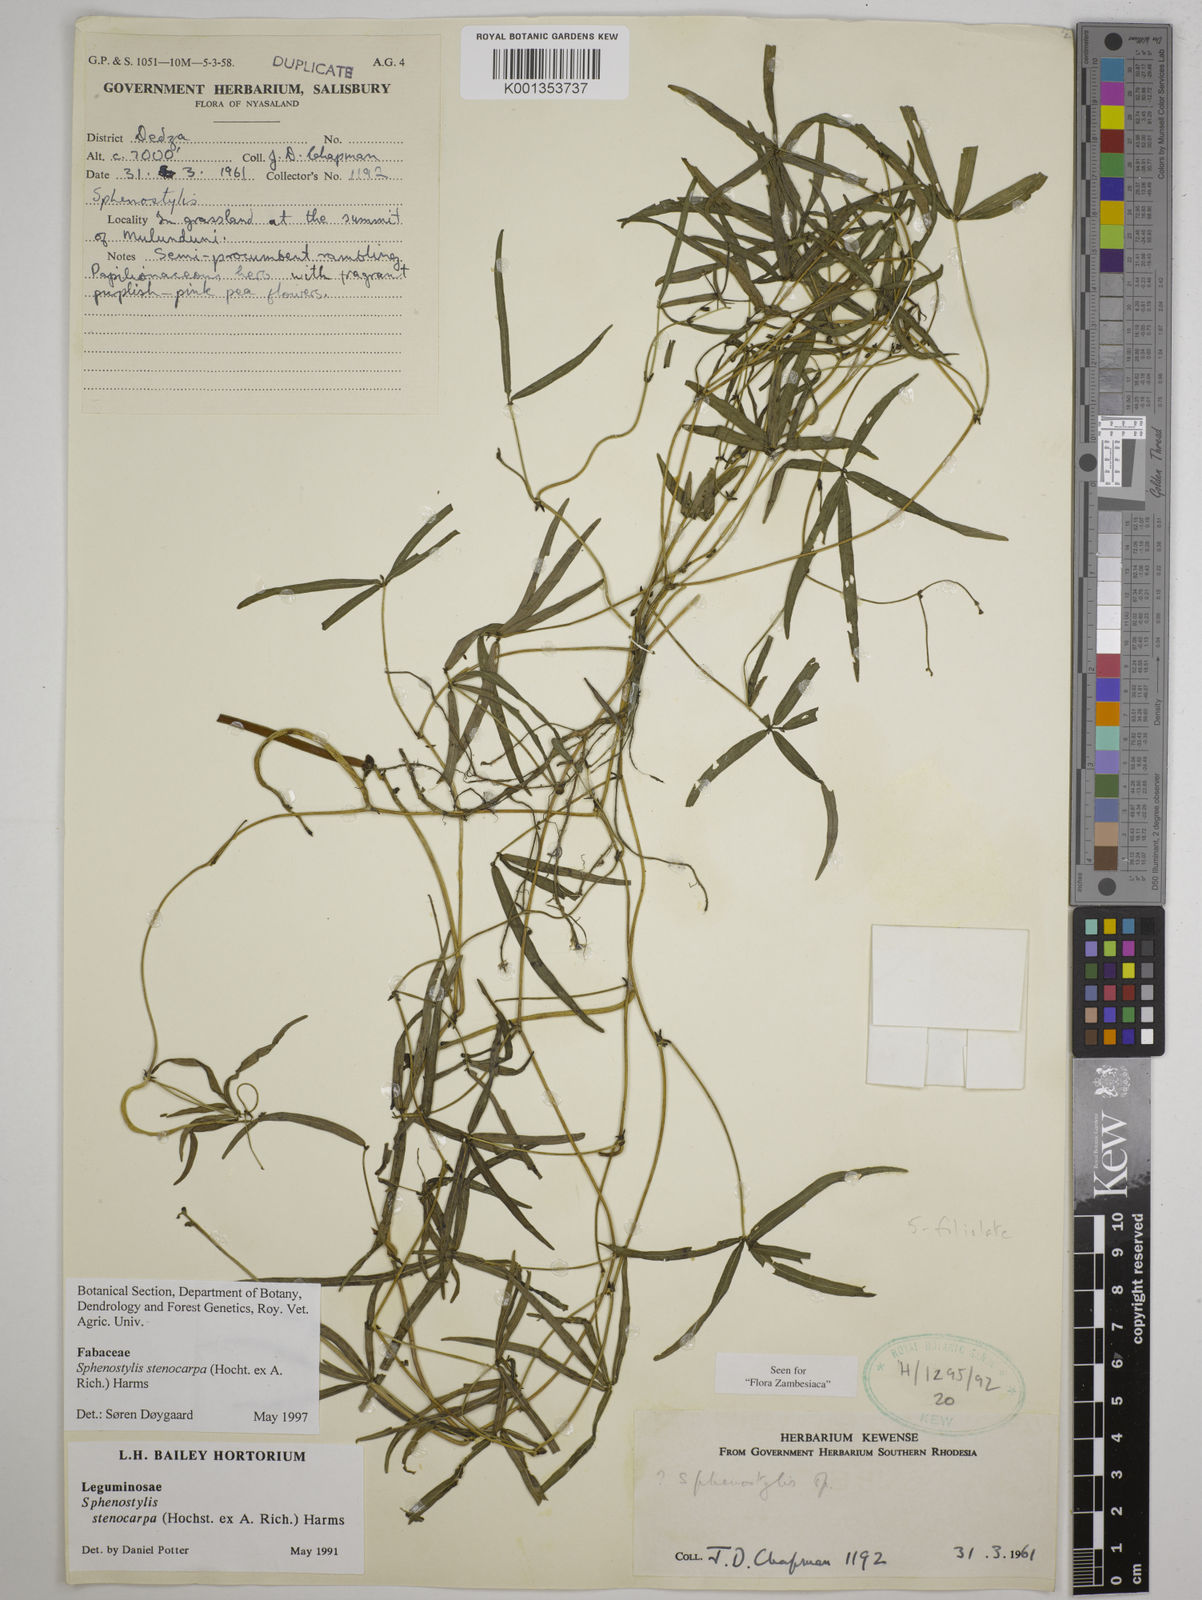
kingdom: Plantae
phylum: Tracheophyta
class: Magnoliopsida
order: Fabales
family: Fabaceae
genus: Sphenostylis
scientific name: Sphenostylis stenocarpa
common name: Yam-pea
